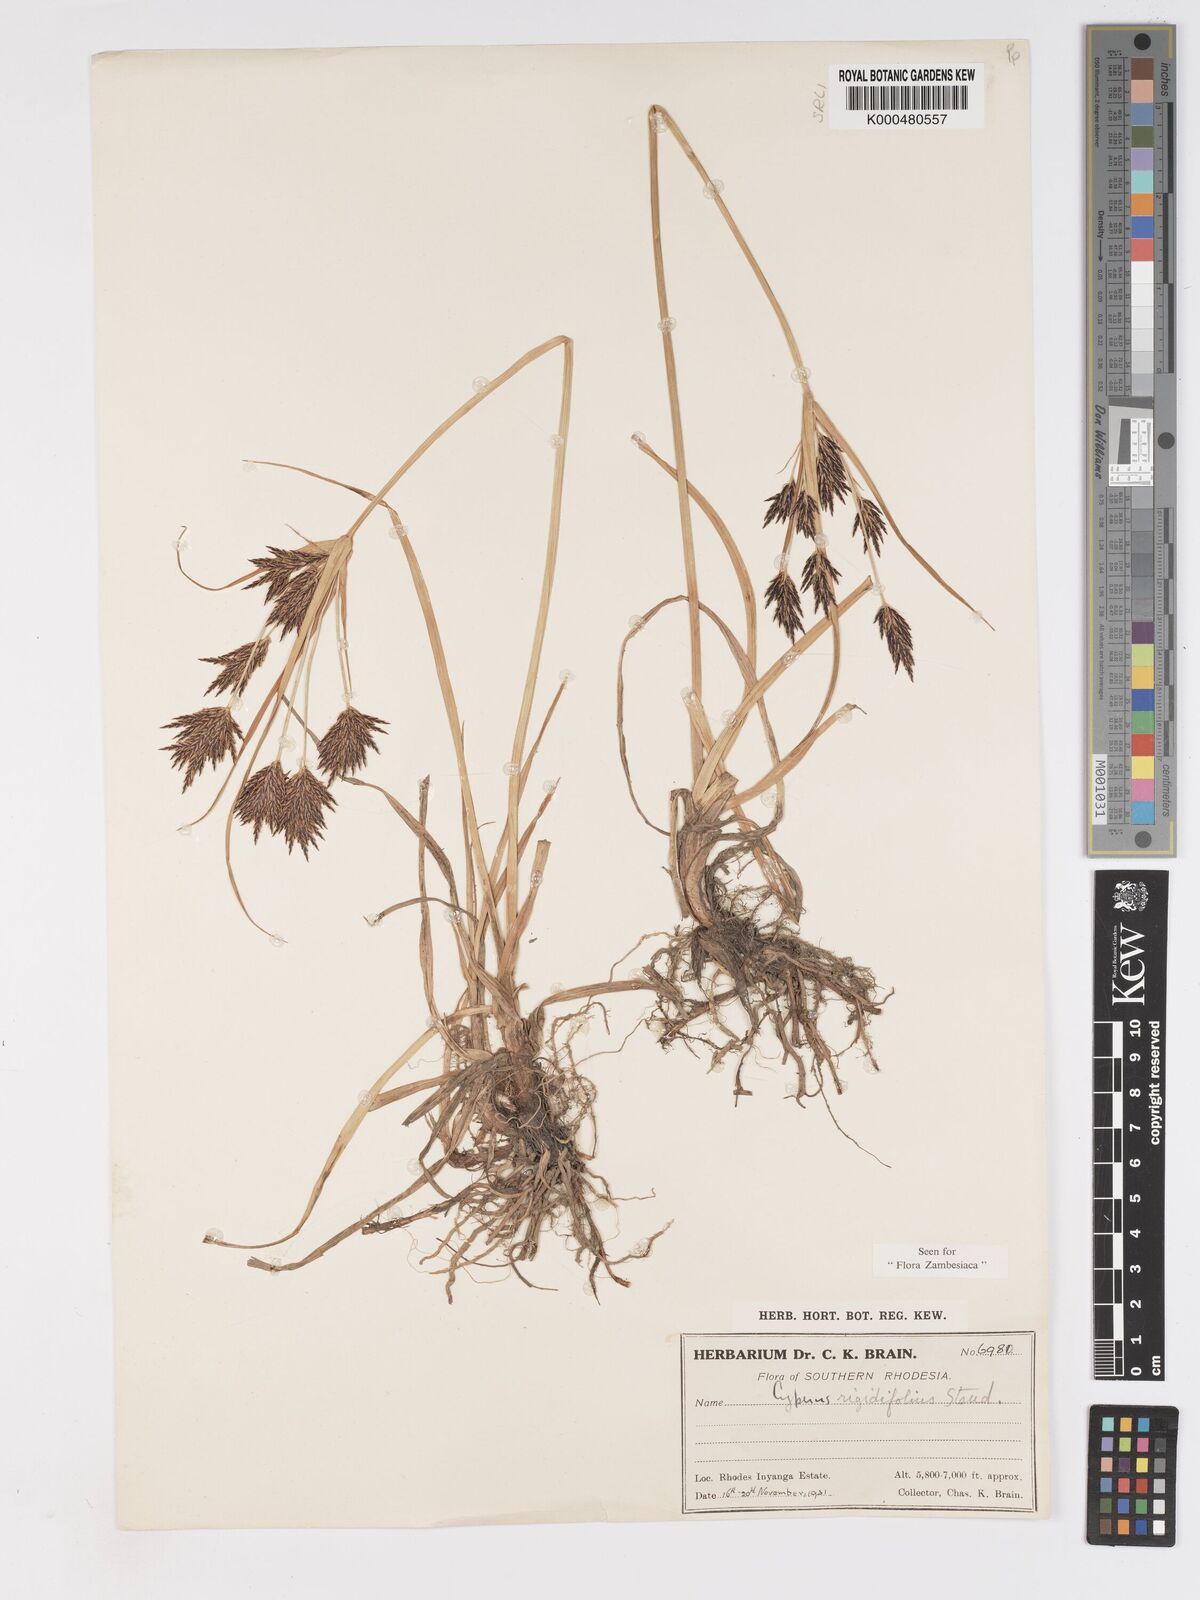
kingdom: Plantae
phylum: Tracheophyta
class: Liliopsida
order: Poales
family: Cyperaceae
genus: Cyperus
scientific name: Cyperus rigidifolius
